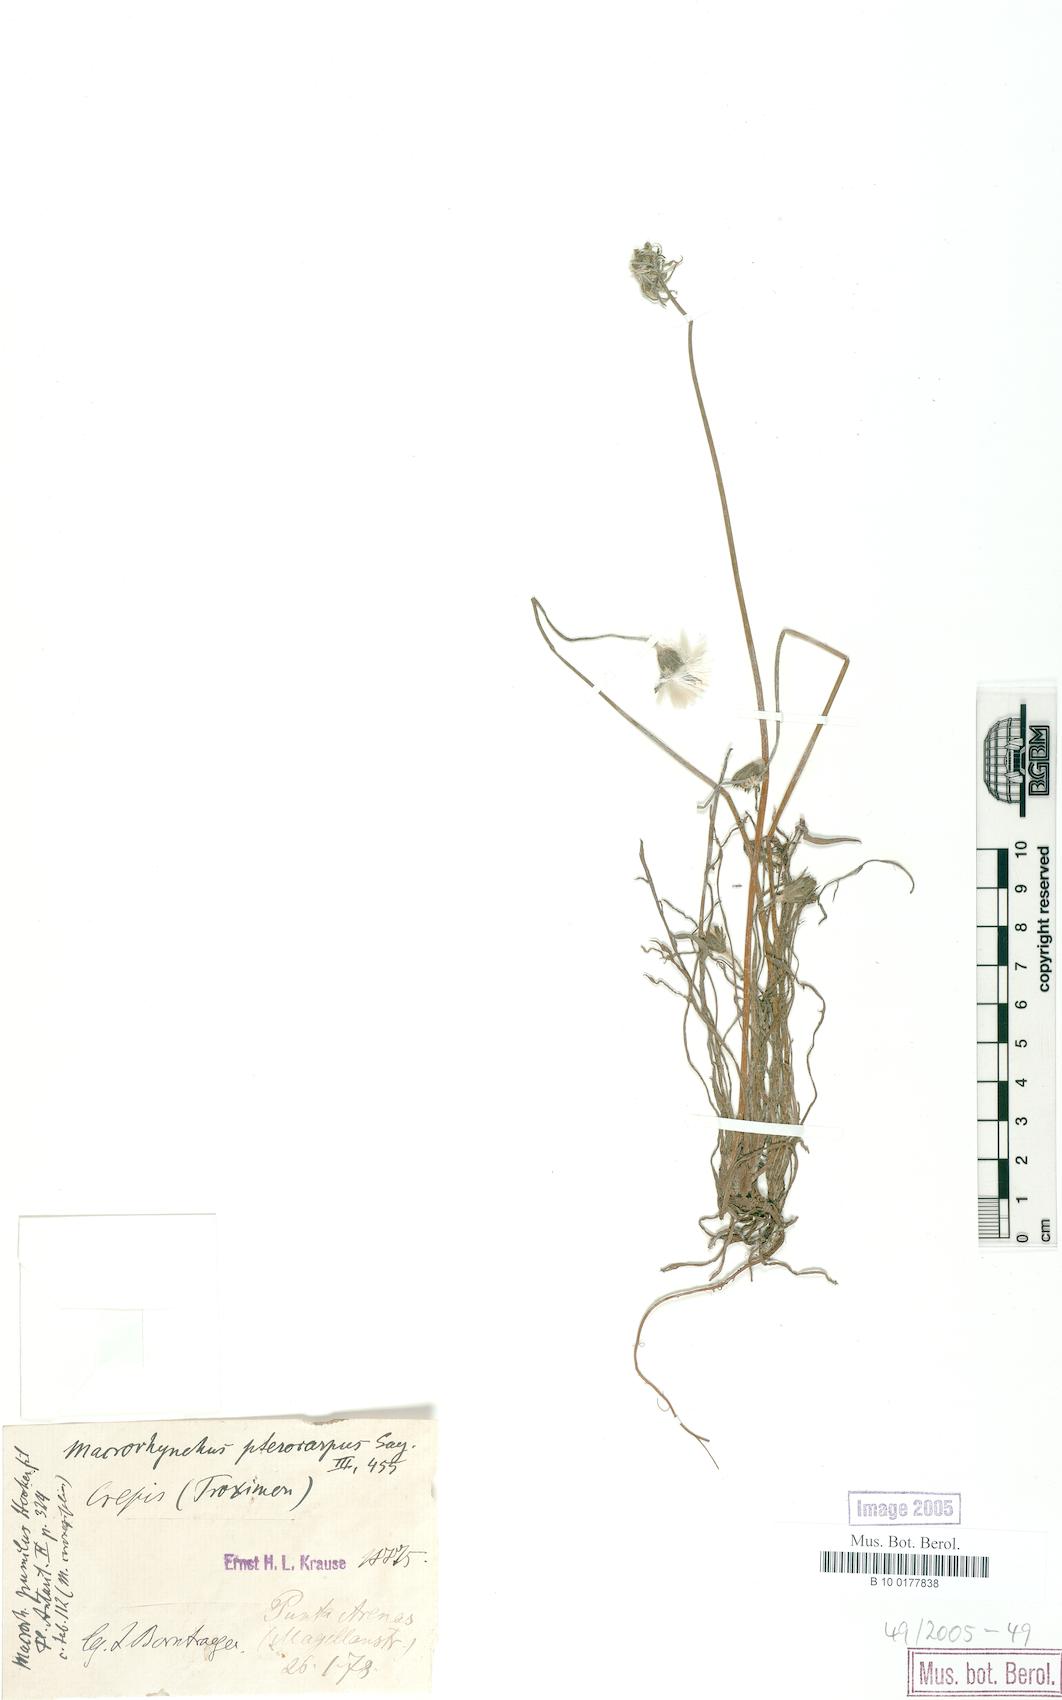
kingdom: Plantae
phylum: Tracheophyta
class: Magnoliopsida
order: Asterales
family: Asteraceae
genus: Agoseris
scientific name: Agoseris
